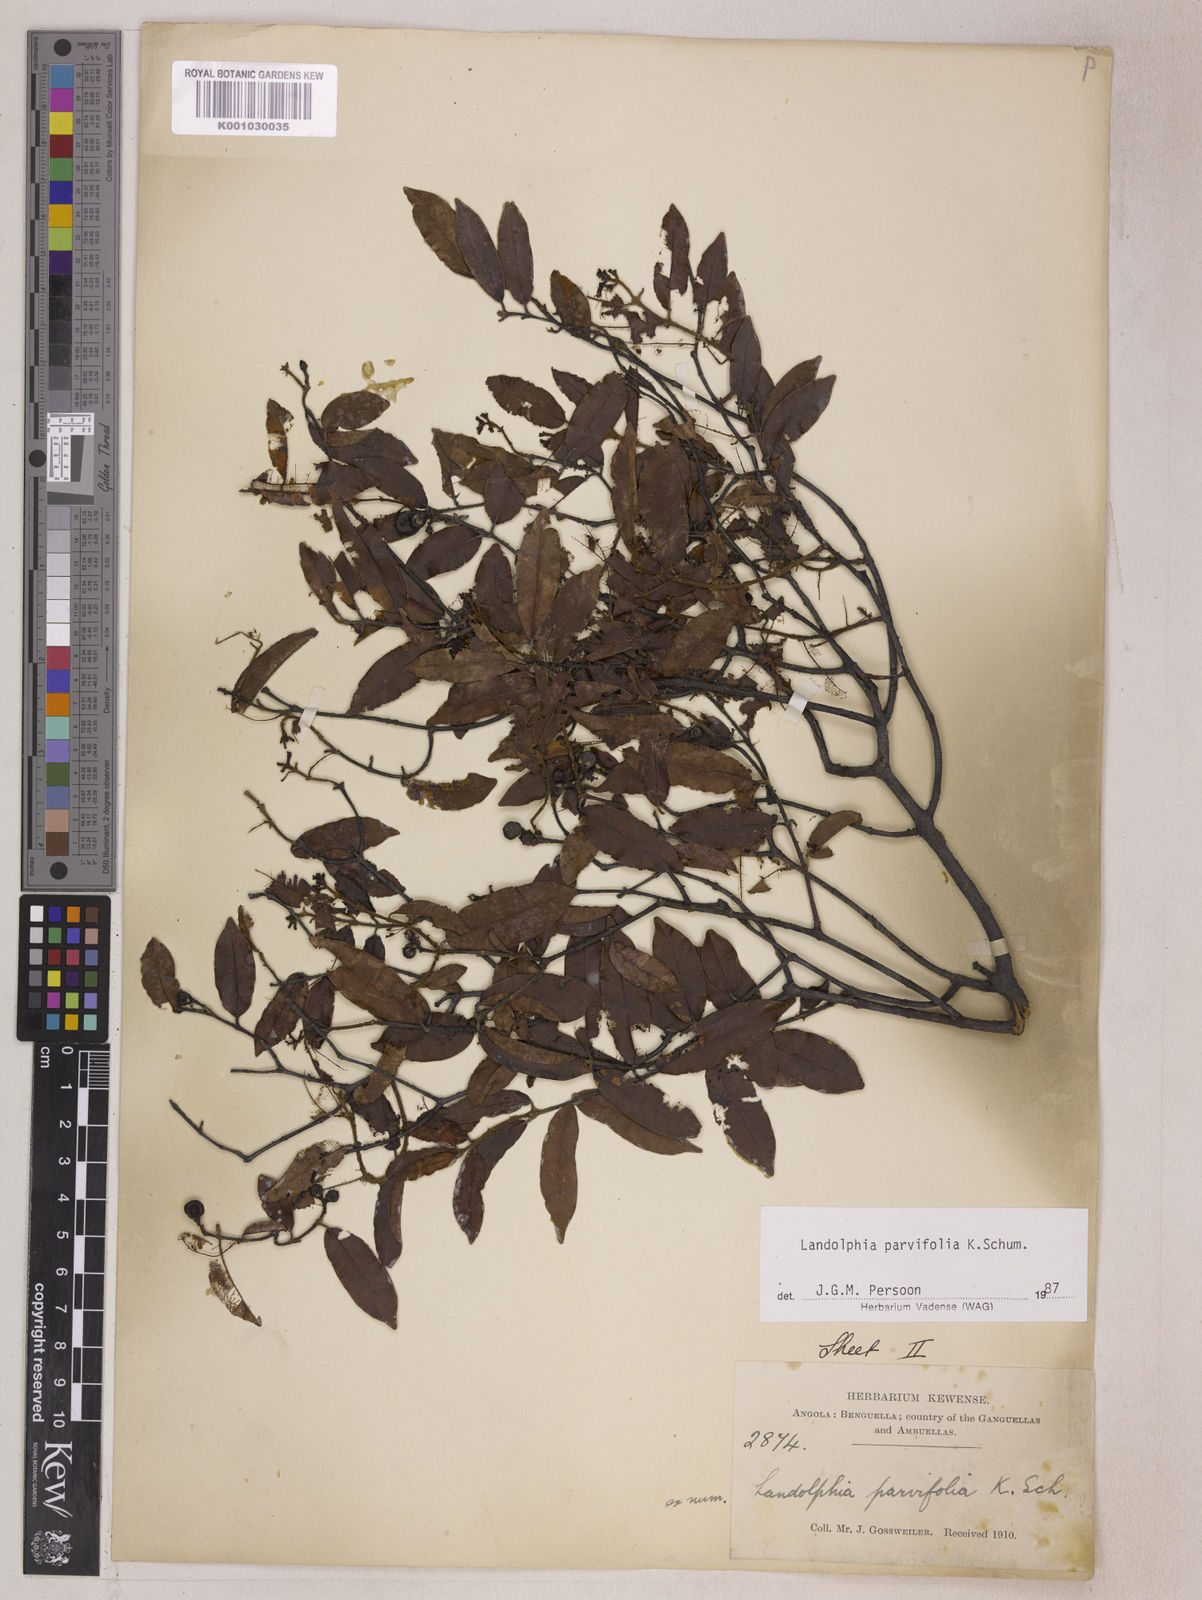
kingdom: Plantae
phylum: Tracheophyta
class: Magnoliopsida
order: Gentianales
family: Apocynaceae
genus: Landolphia
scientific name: Landolphia parvifolia
